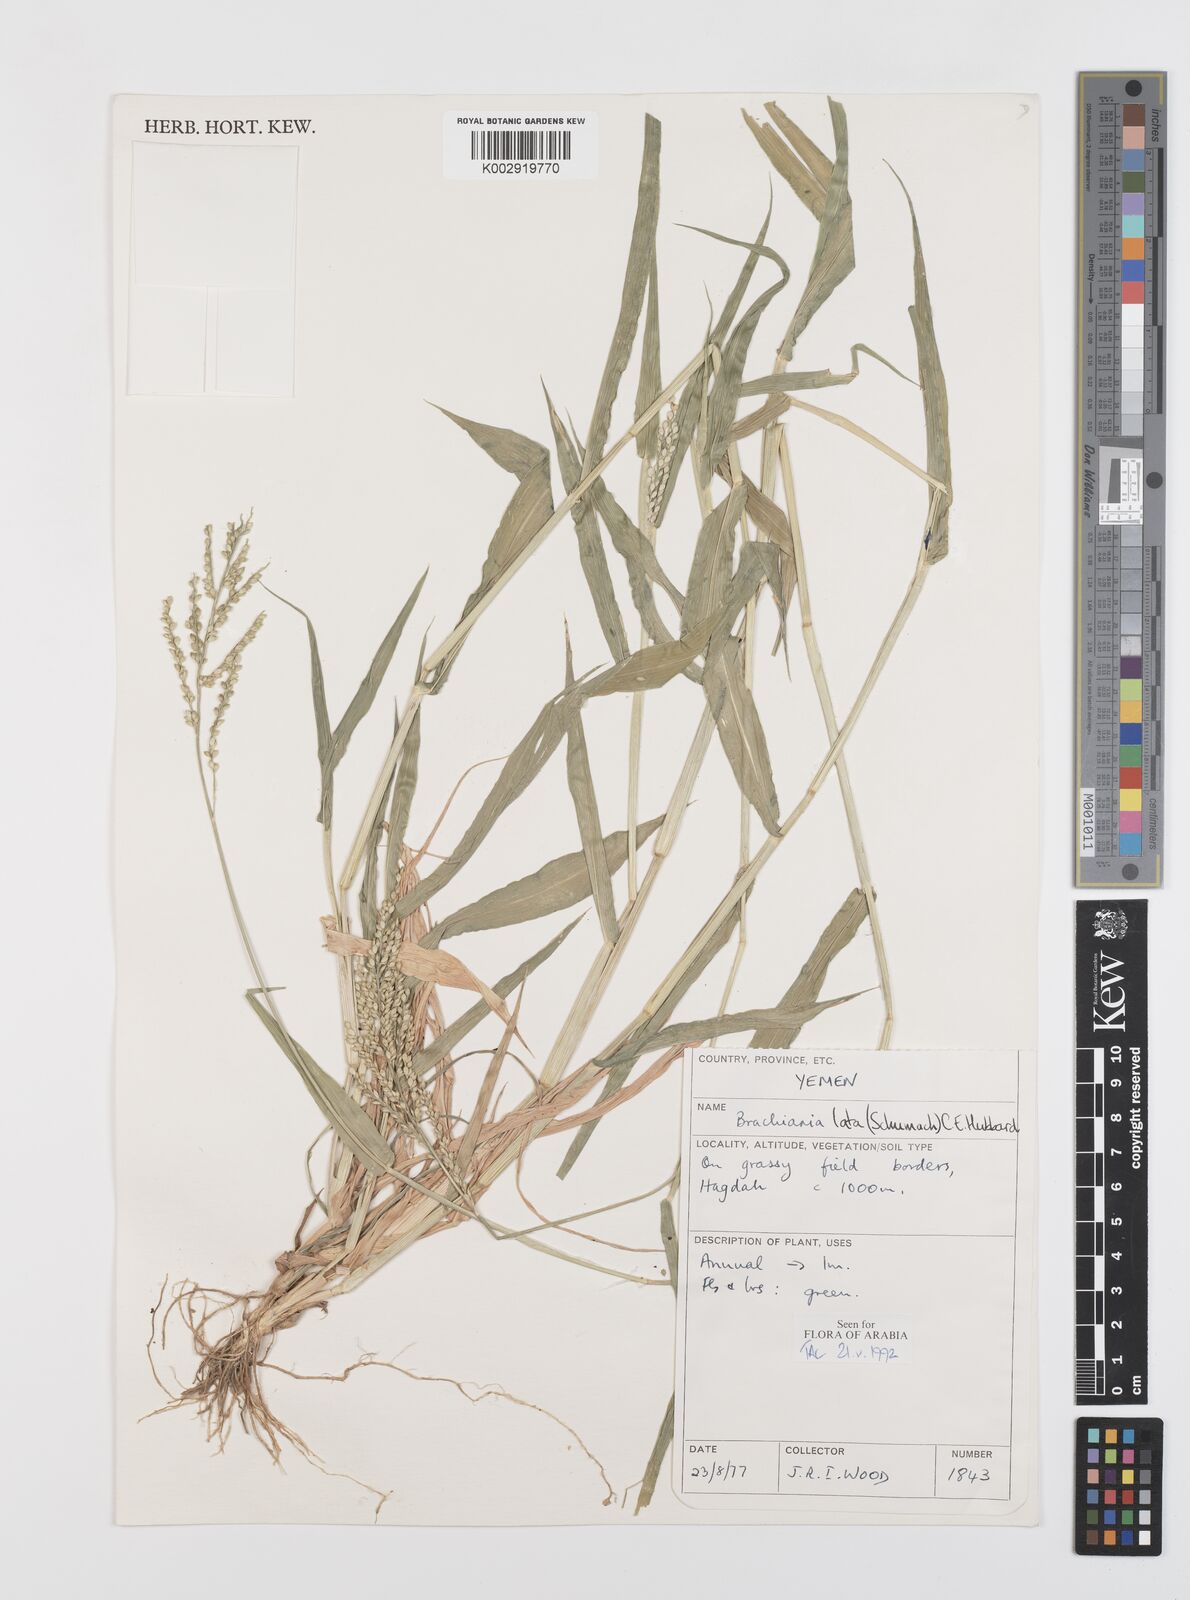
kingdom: Plantae
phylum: Tracheophyta
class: Liliopsida
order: Poales
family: Poaceae
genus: Urochloa
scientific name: Urochloa lata
